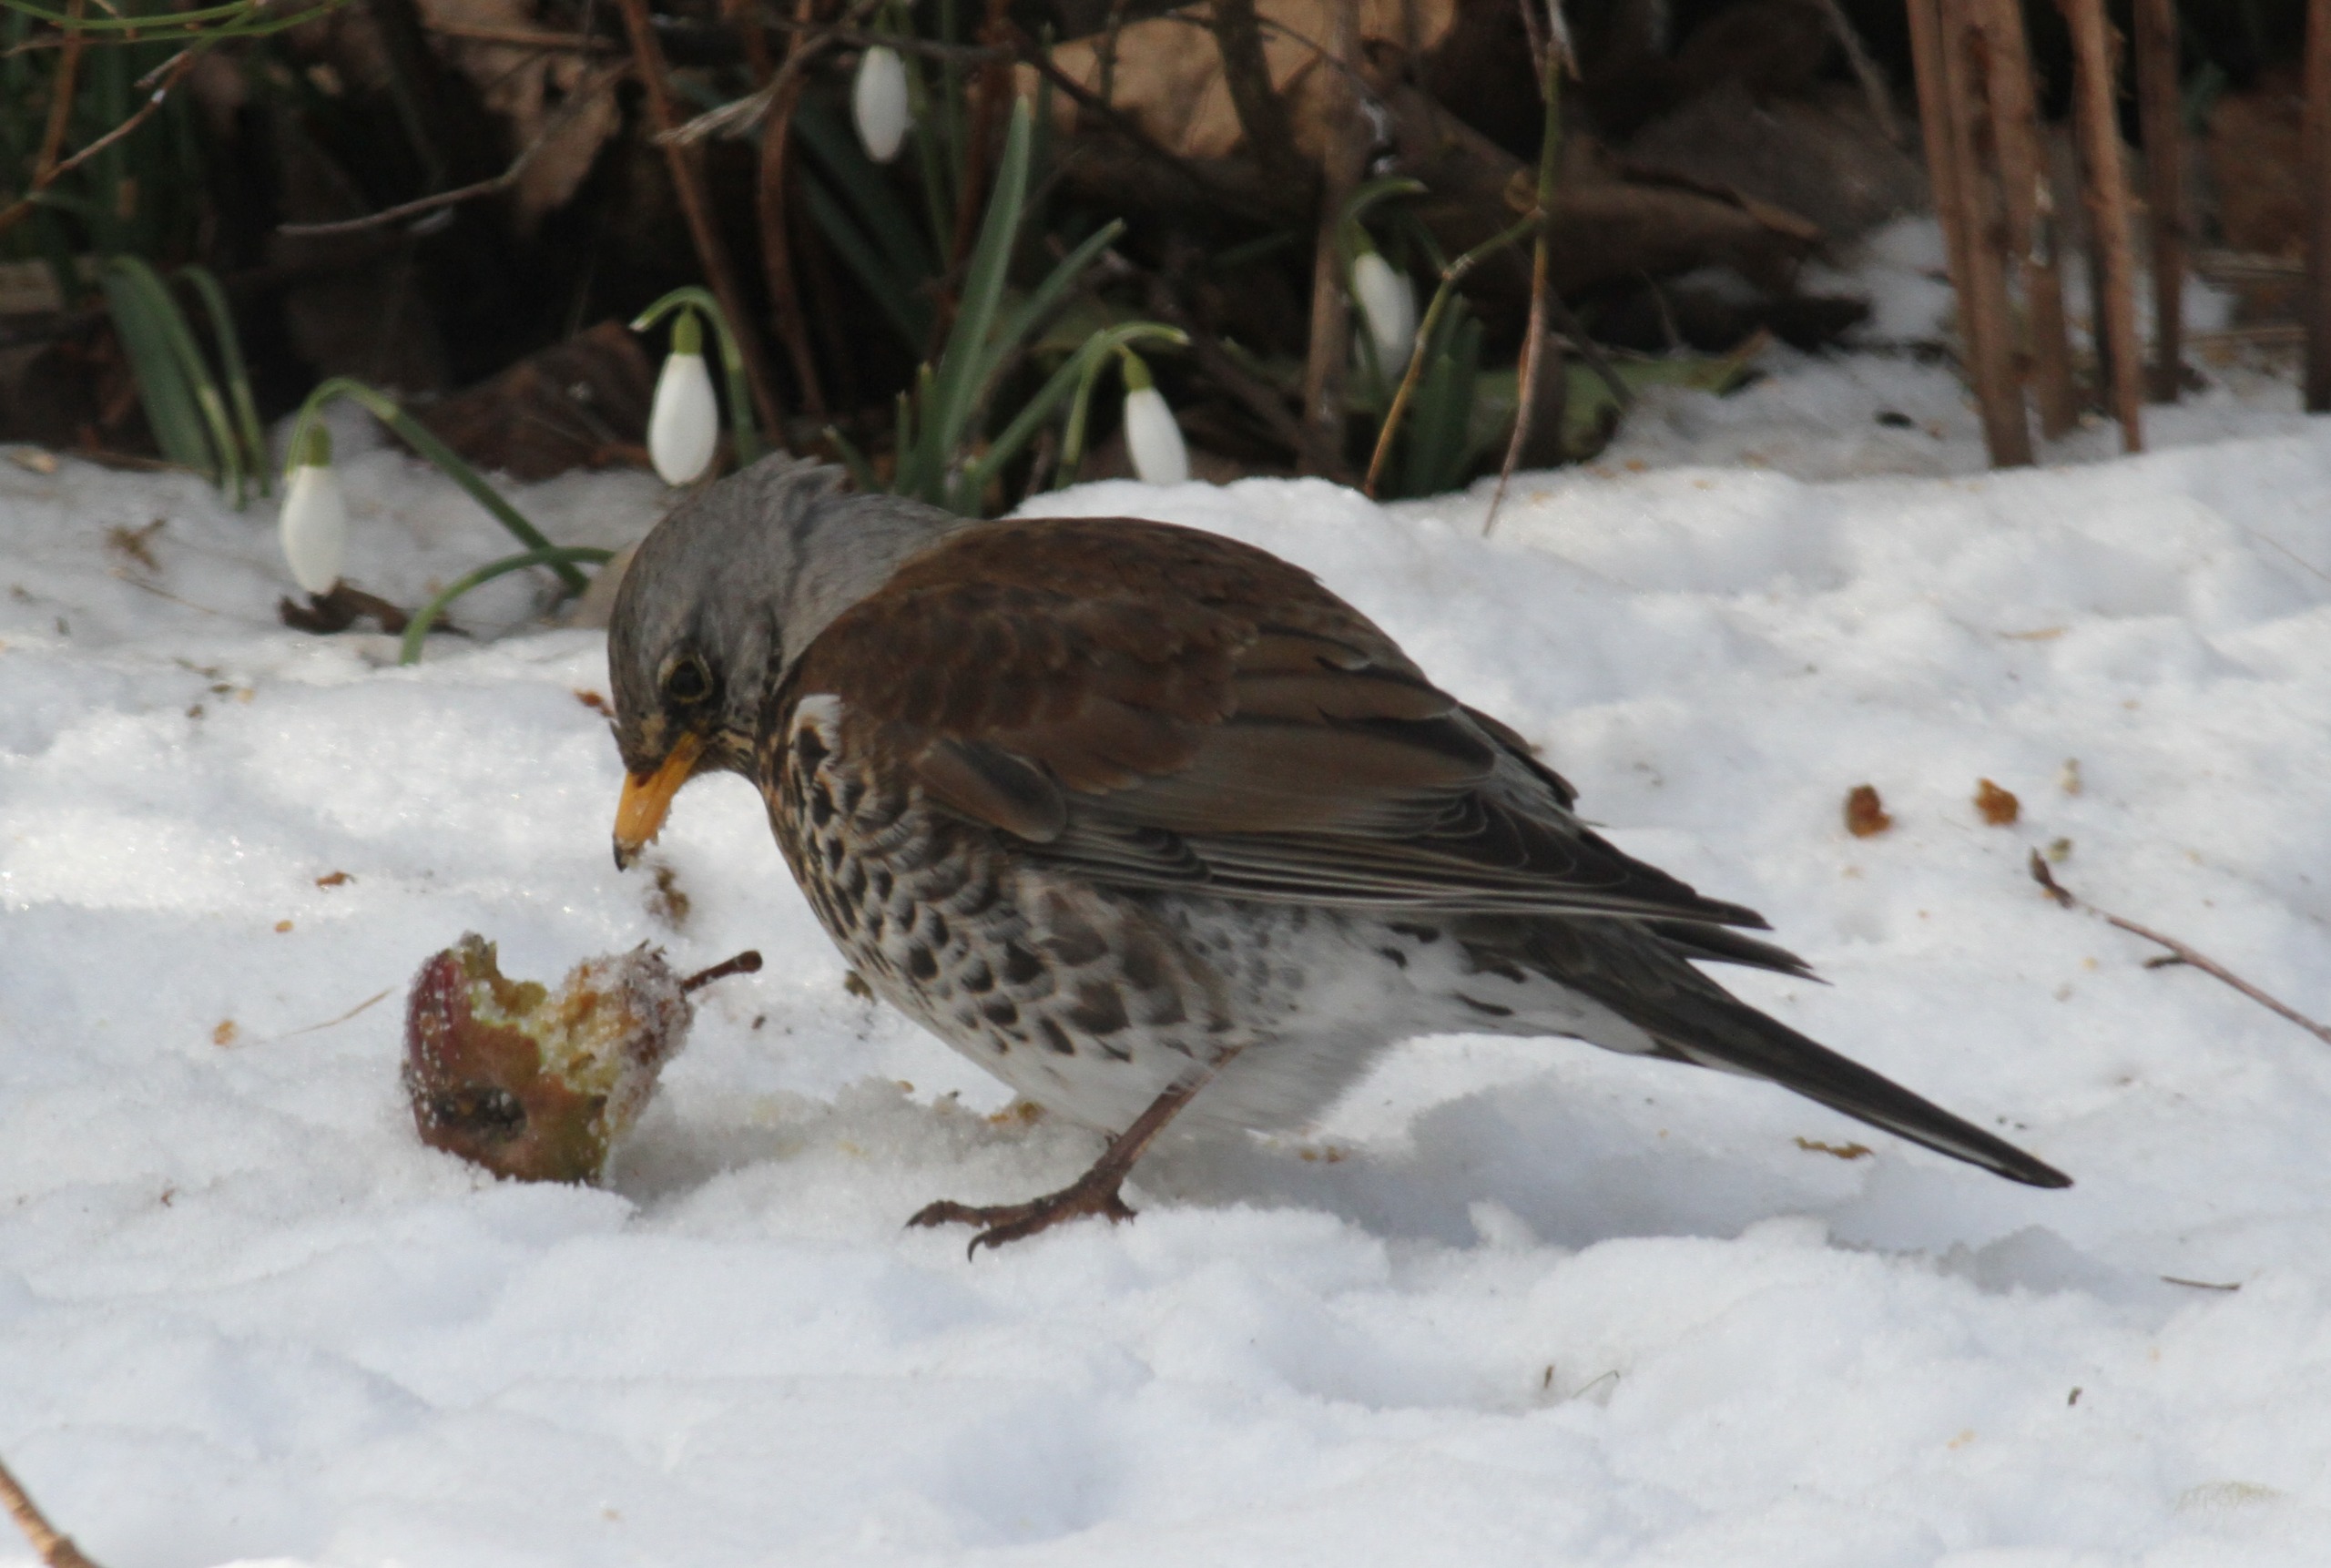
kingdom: Animalia
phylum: Chordata
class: Aves
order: Passeriformes
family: Turdidae
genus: Turdus
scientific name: Turdus pilaris
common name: Sjagger
